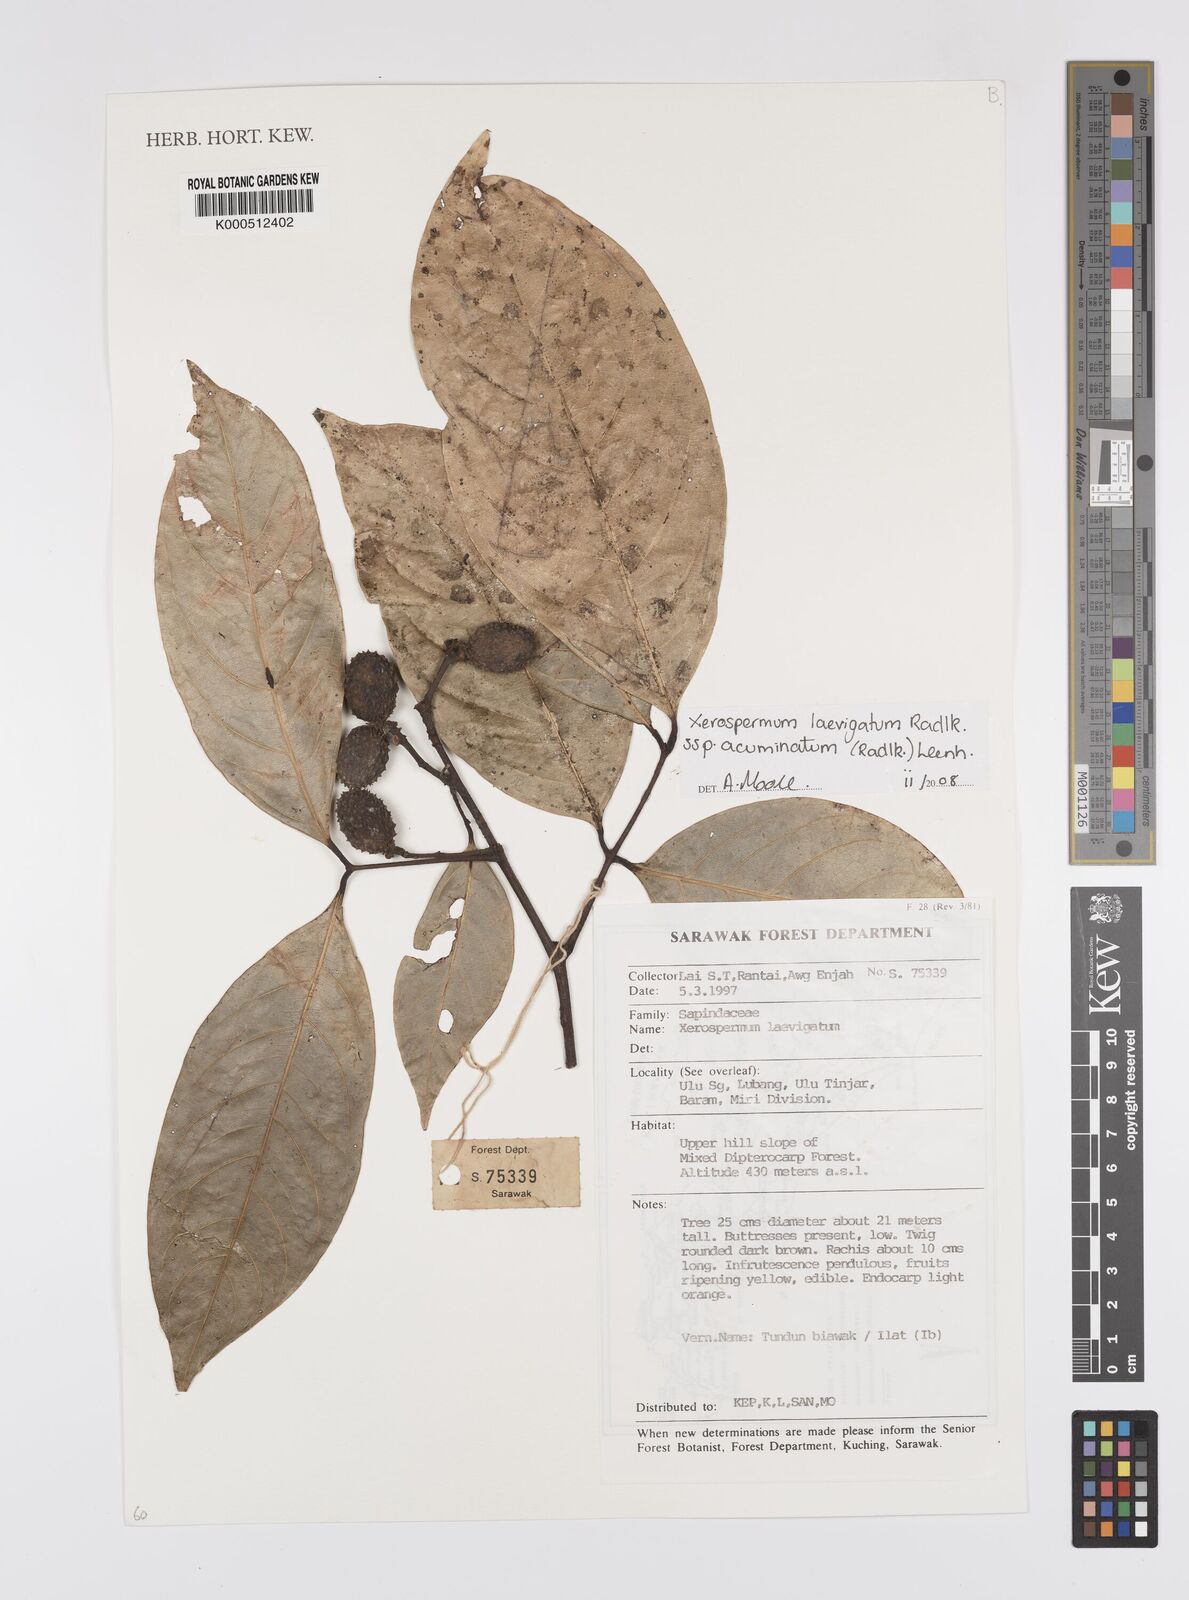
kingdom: Plantae
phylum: Tracheophyta
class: Magnoliopsida
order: Sapindales
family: Sapindaceae
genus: Xerospermum
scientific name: Xerospermum laevigatum
